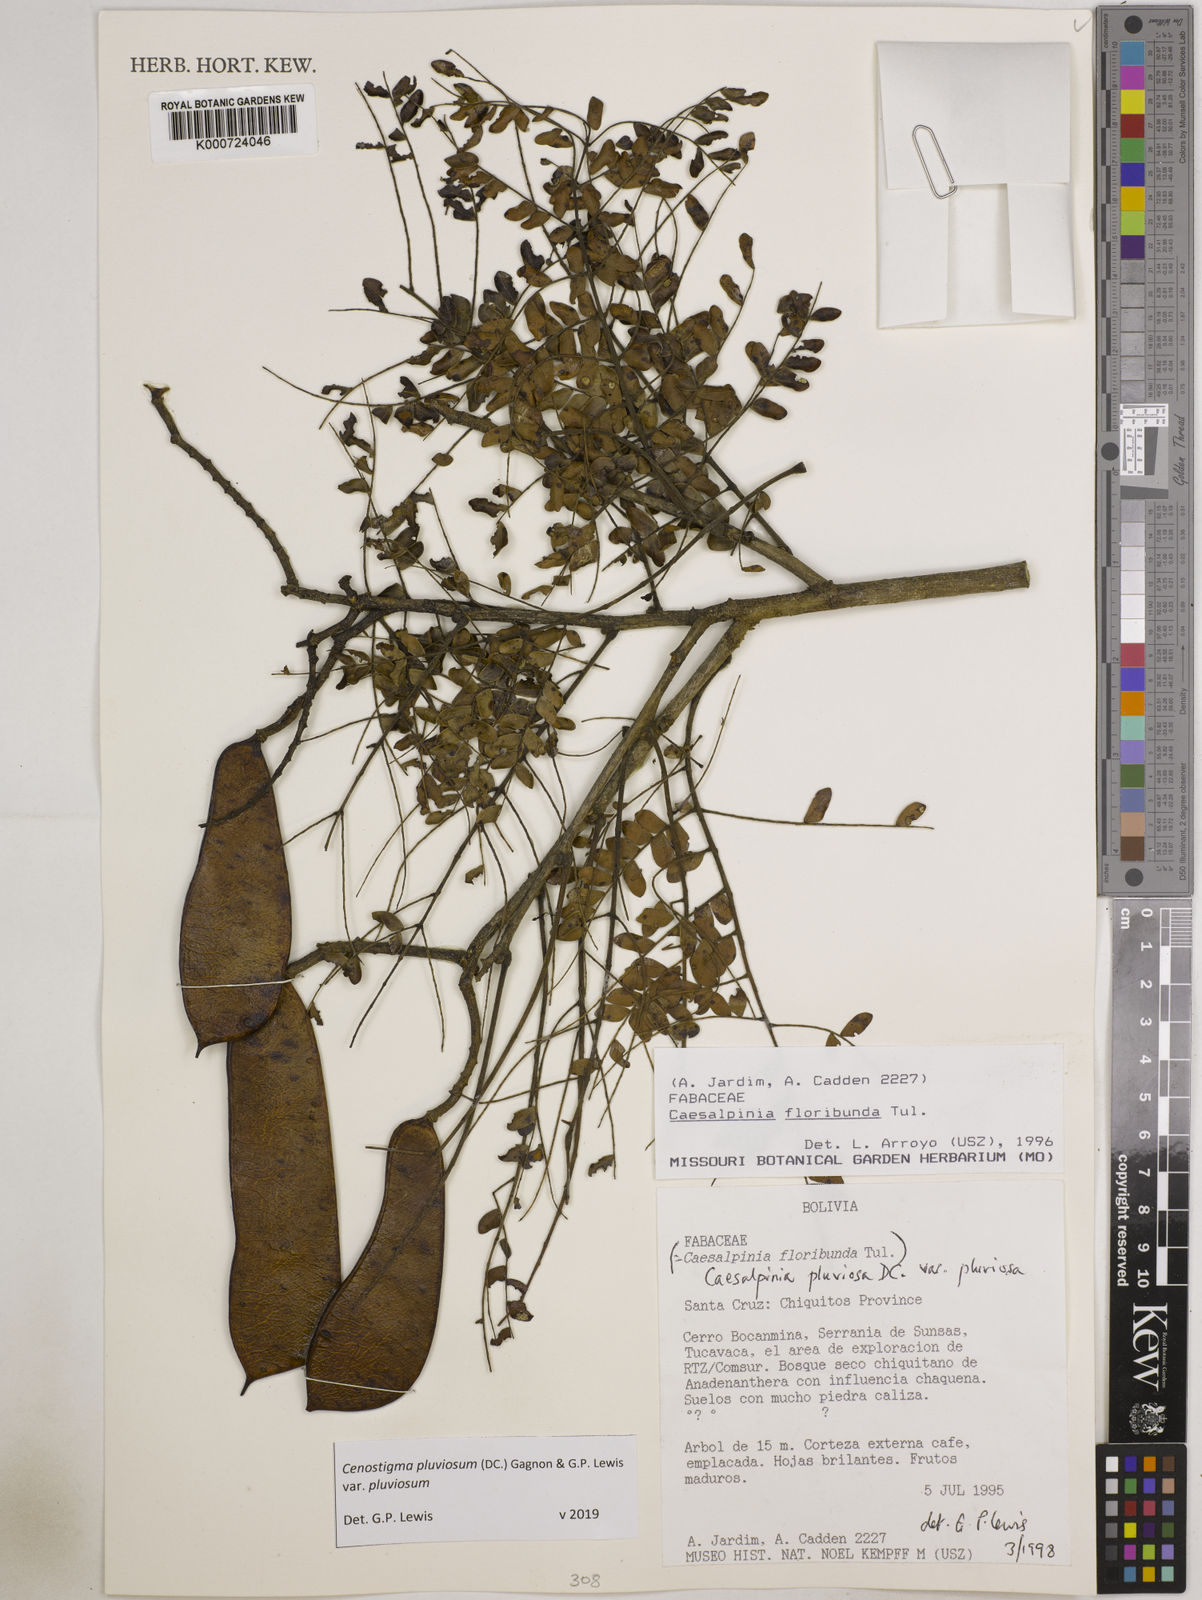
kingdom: Plantae
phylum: Tracheophyta
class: Magnoliopsida
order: Fabales
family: Fabaceae
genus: Cenostigma
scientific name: Cenostigma pluviosum
